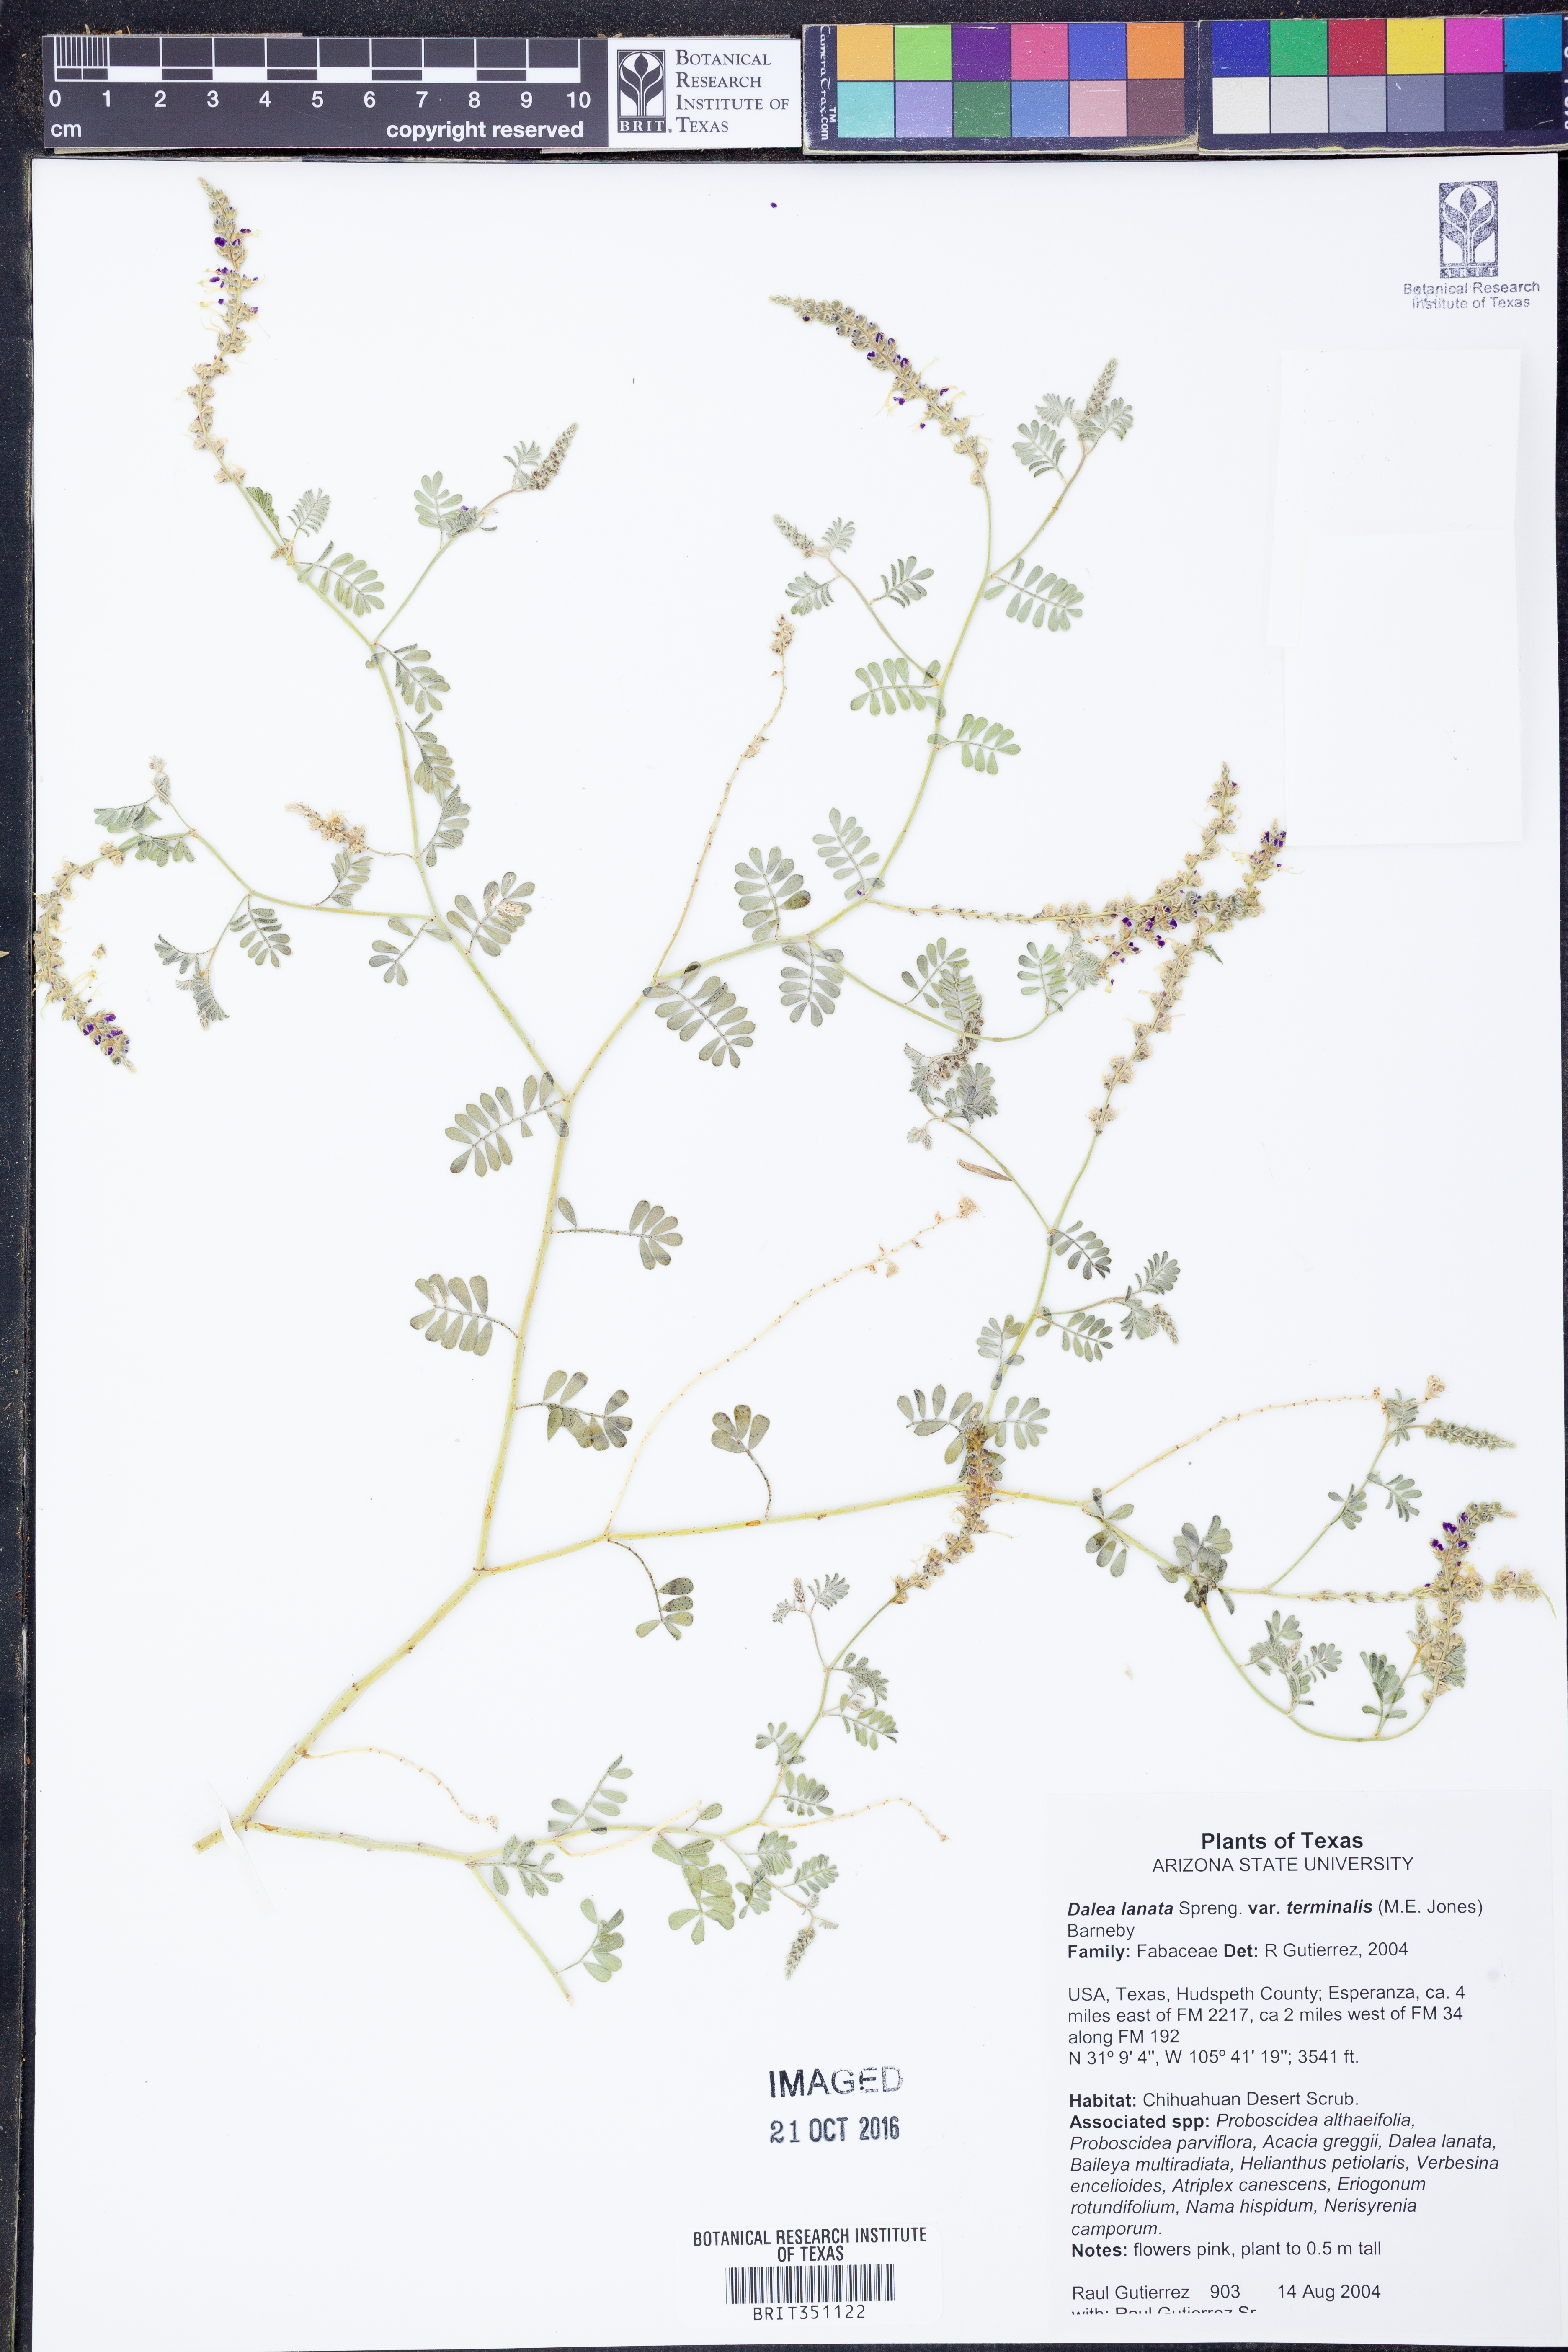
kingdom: Plantae
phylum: Tracheophyta
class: Magnoliopsida
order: Fabales
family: Fabaceae
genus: Dalea
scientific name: Dalea lanata
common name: Woolly dalea
